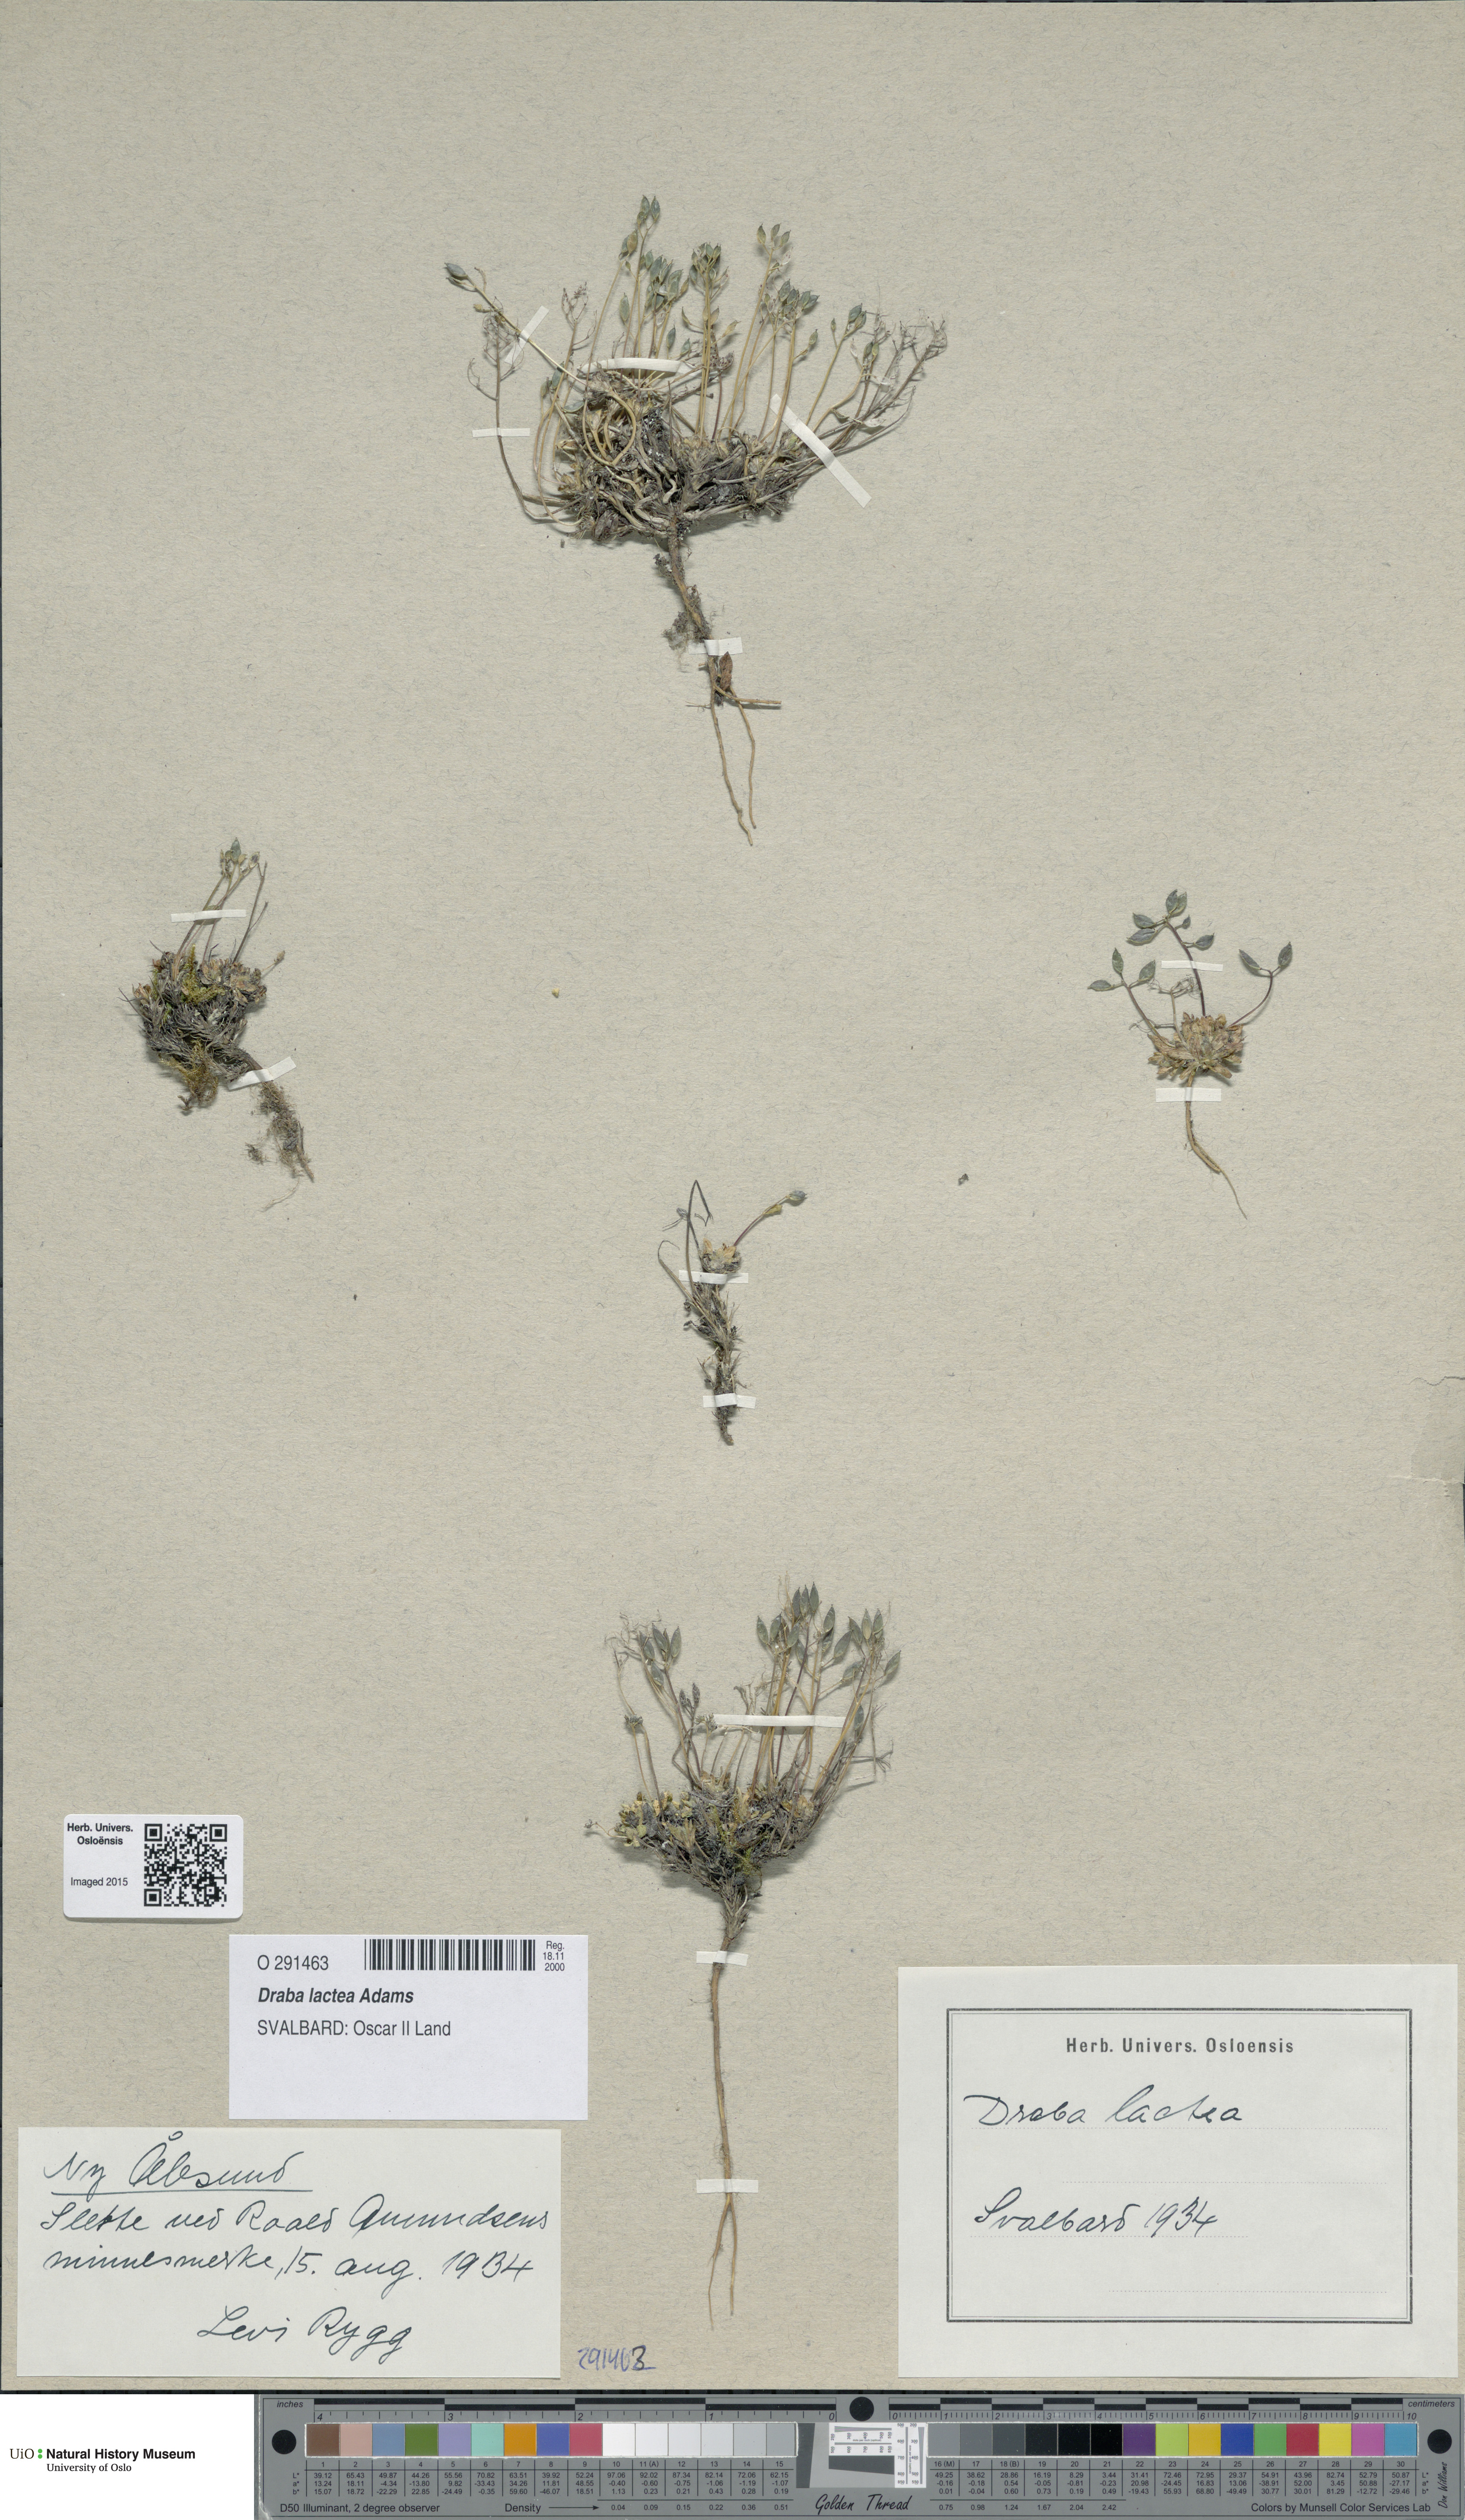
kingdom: Plantae
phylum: Tracheophyta
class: Magnoliopsida
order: Brassicales
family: Brassicaceae
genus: Draba
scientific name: Draba lactea
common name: Milky draba
